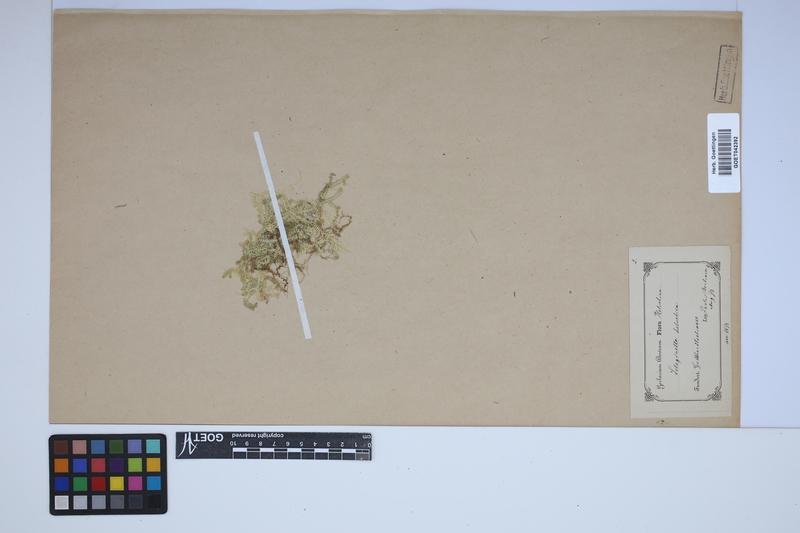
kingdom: Plantae
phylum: Tracheophyta
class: Lycopodiopsida
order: Selaginellales
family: Selaginellaceae
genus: Selaginella
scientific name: Selaginella helvetica
